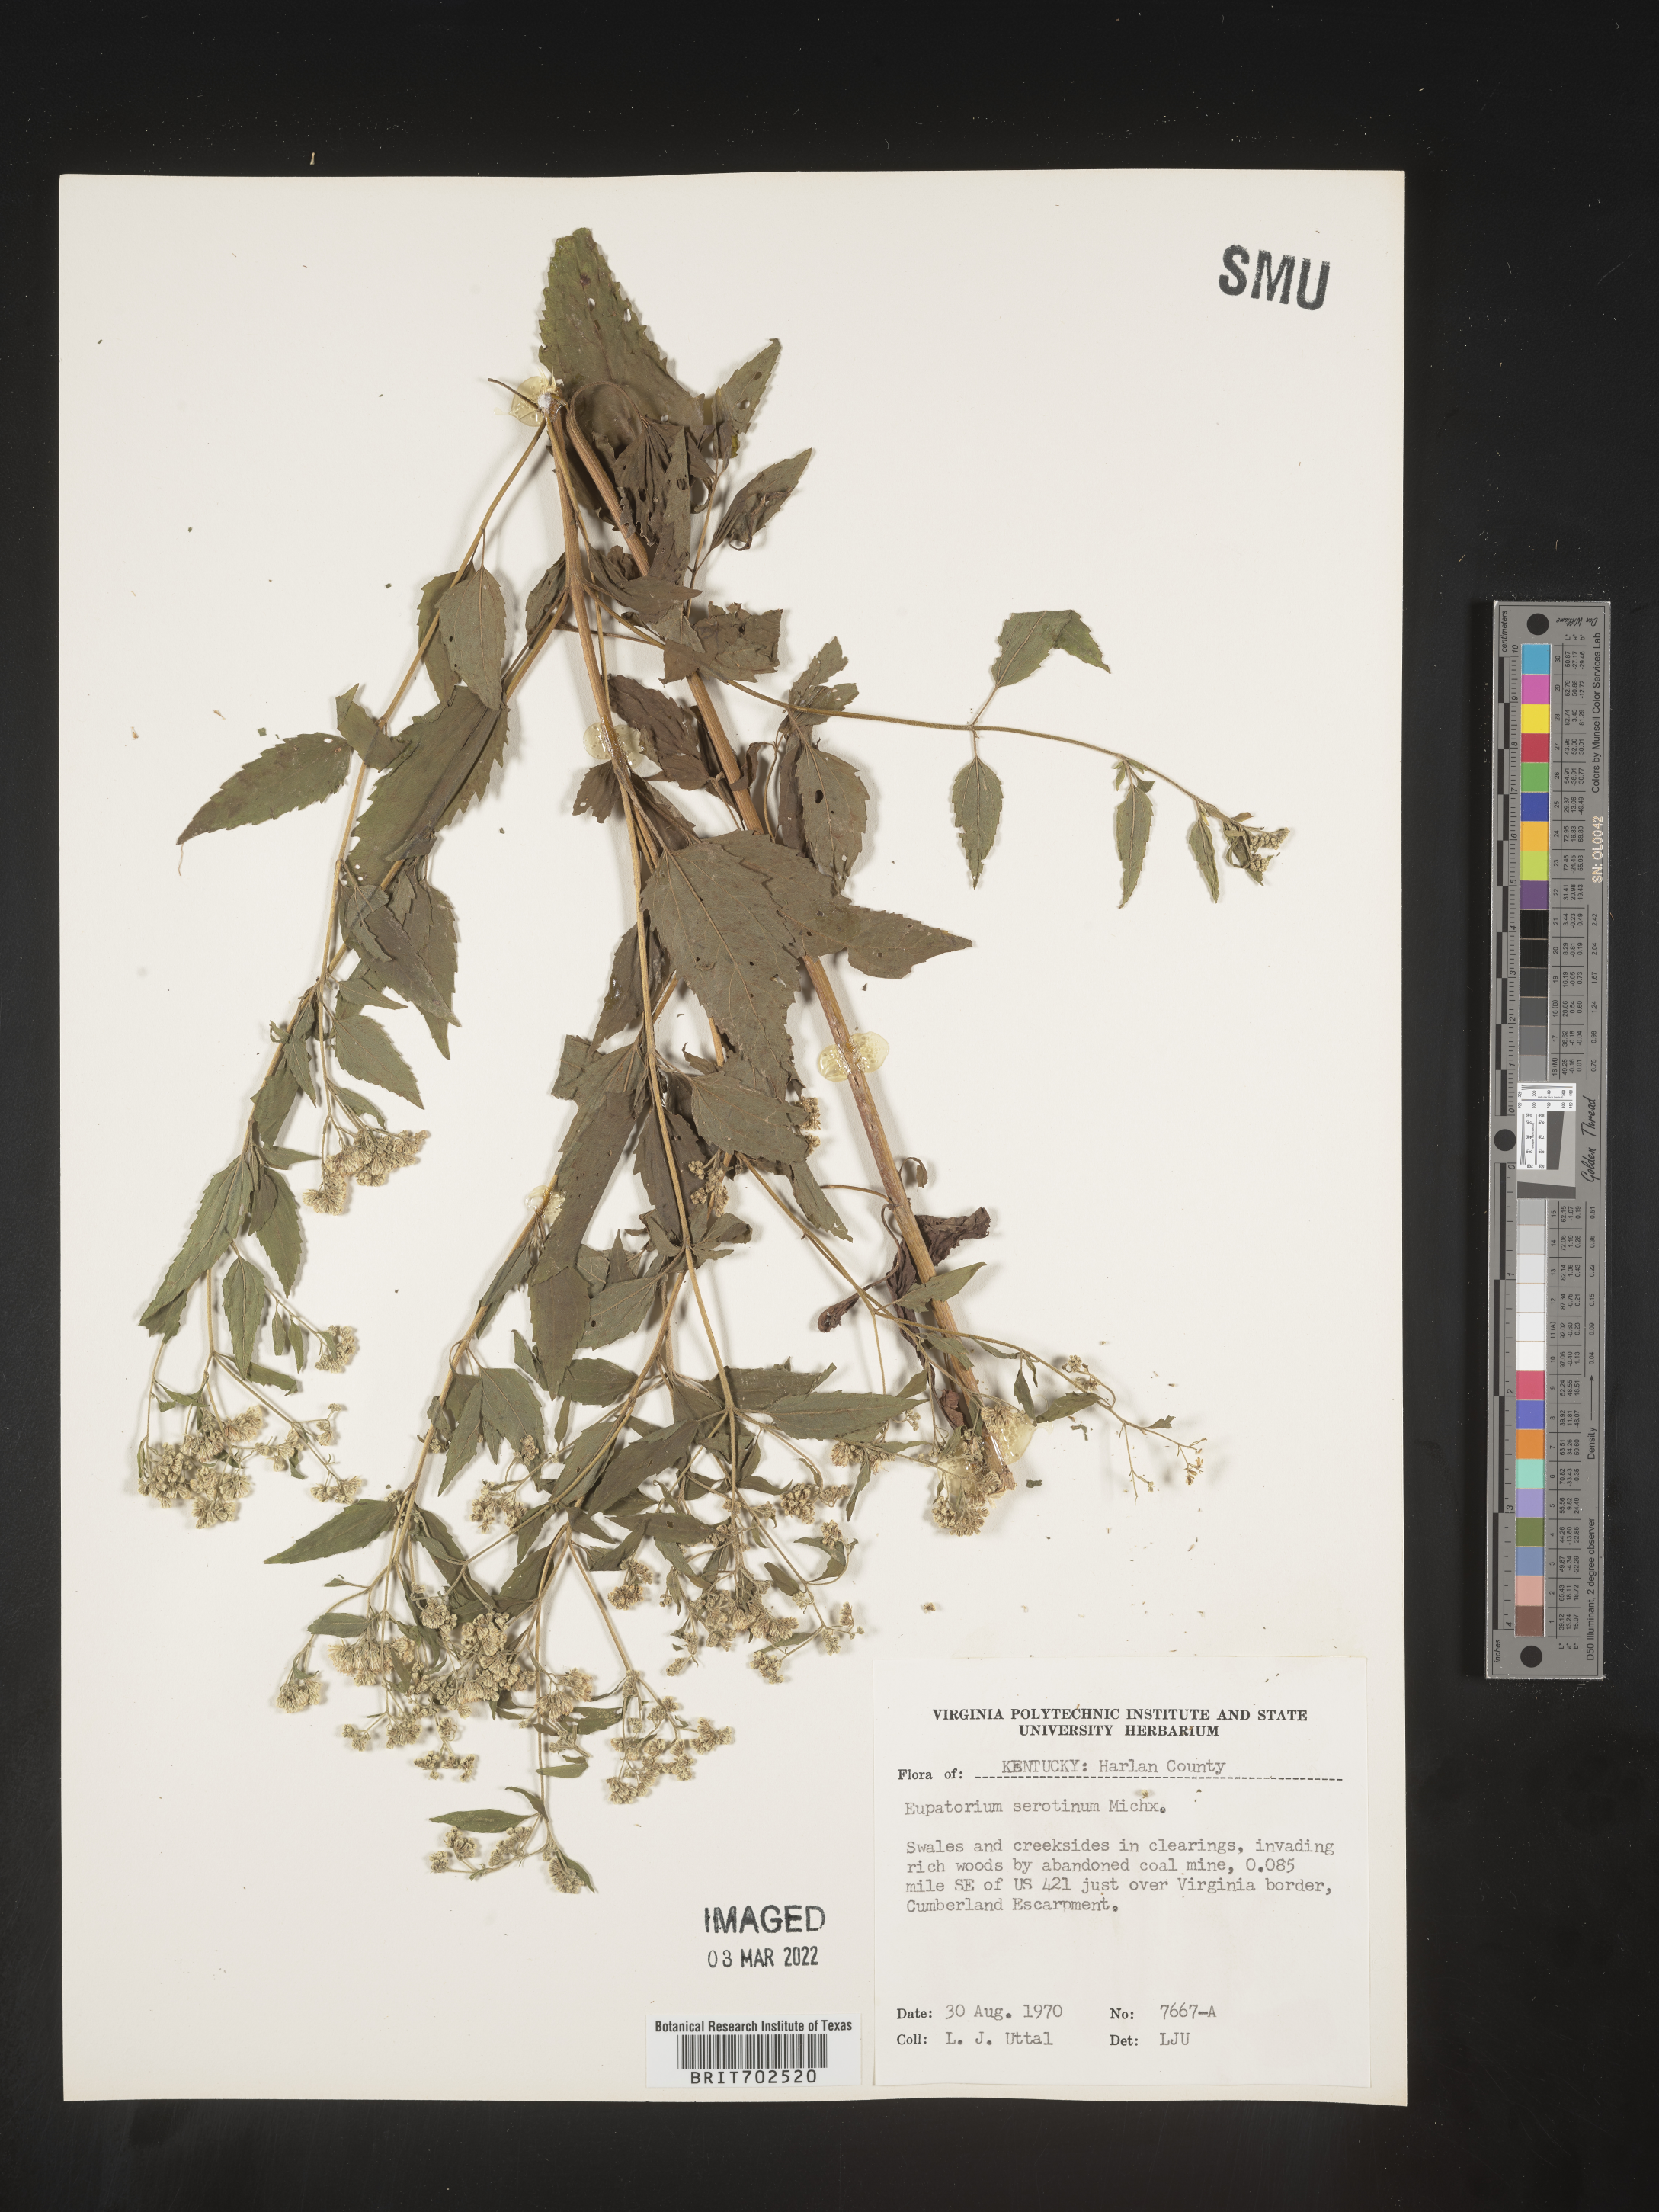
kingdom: Plantae
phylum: Tracheophyta
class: Magnoliopsida
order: Asterales
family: Asteraceae
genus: Eupatorium
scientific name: Eupatorium serotinum
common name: Late boneset
